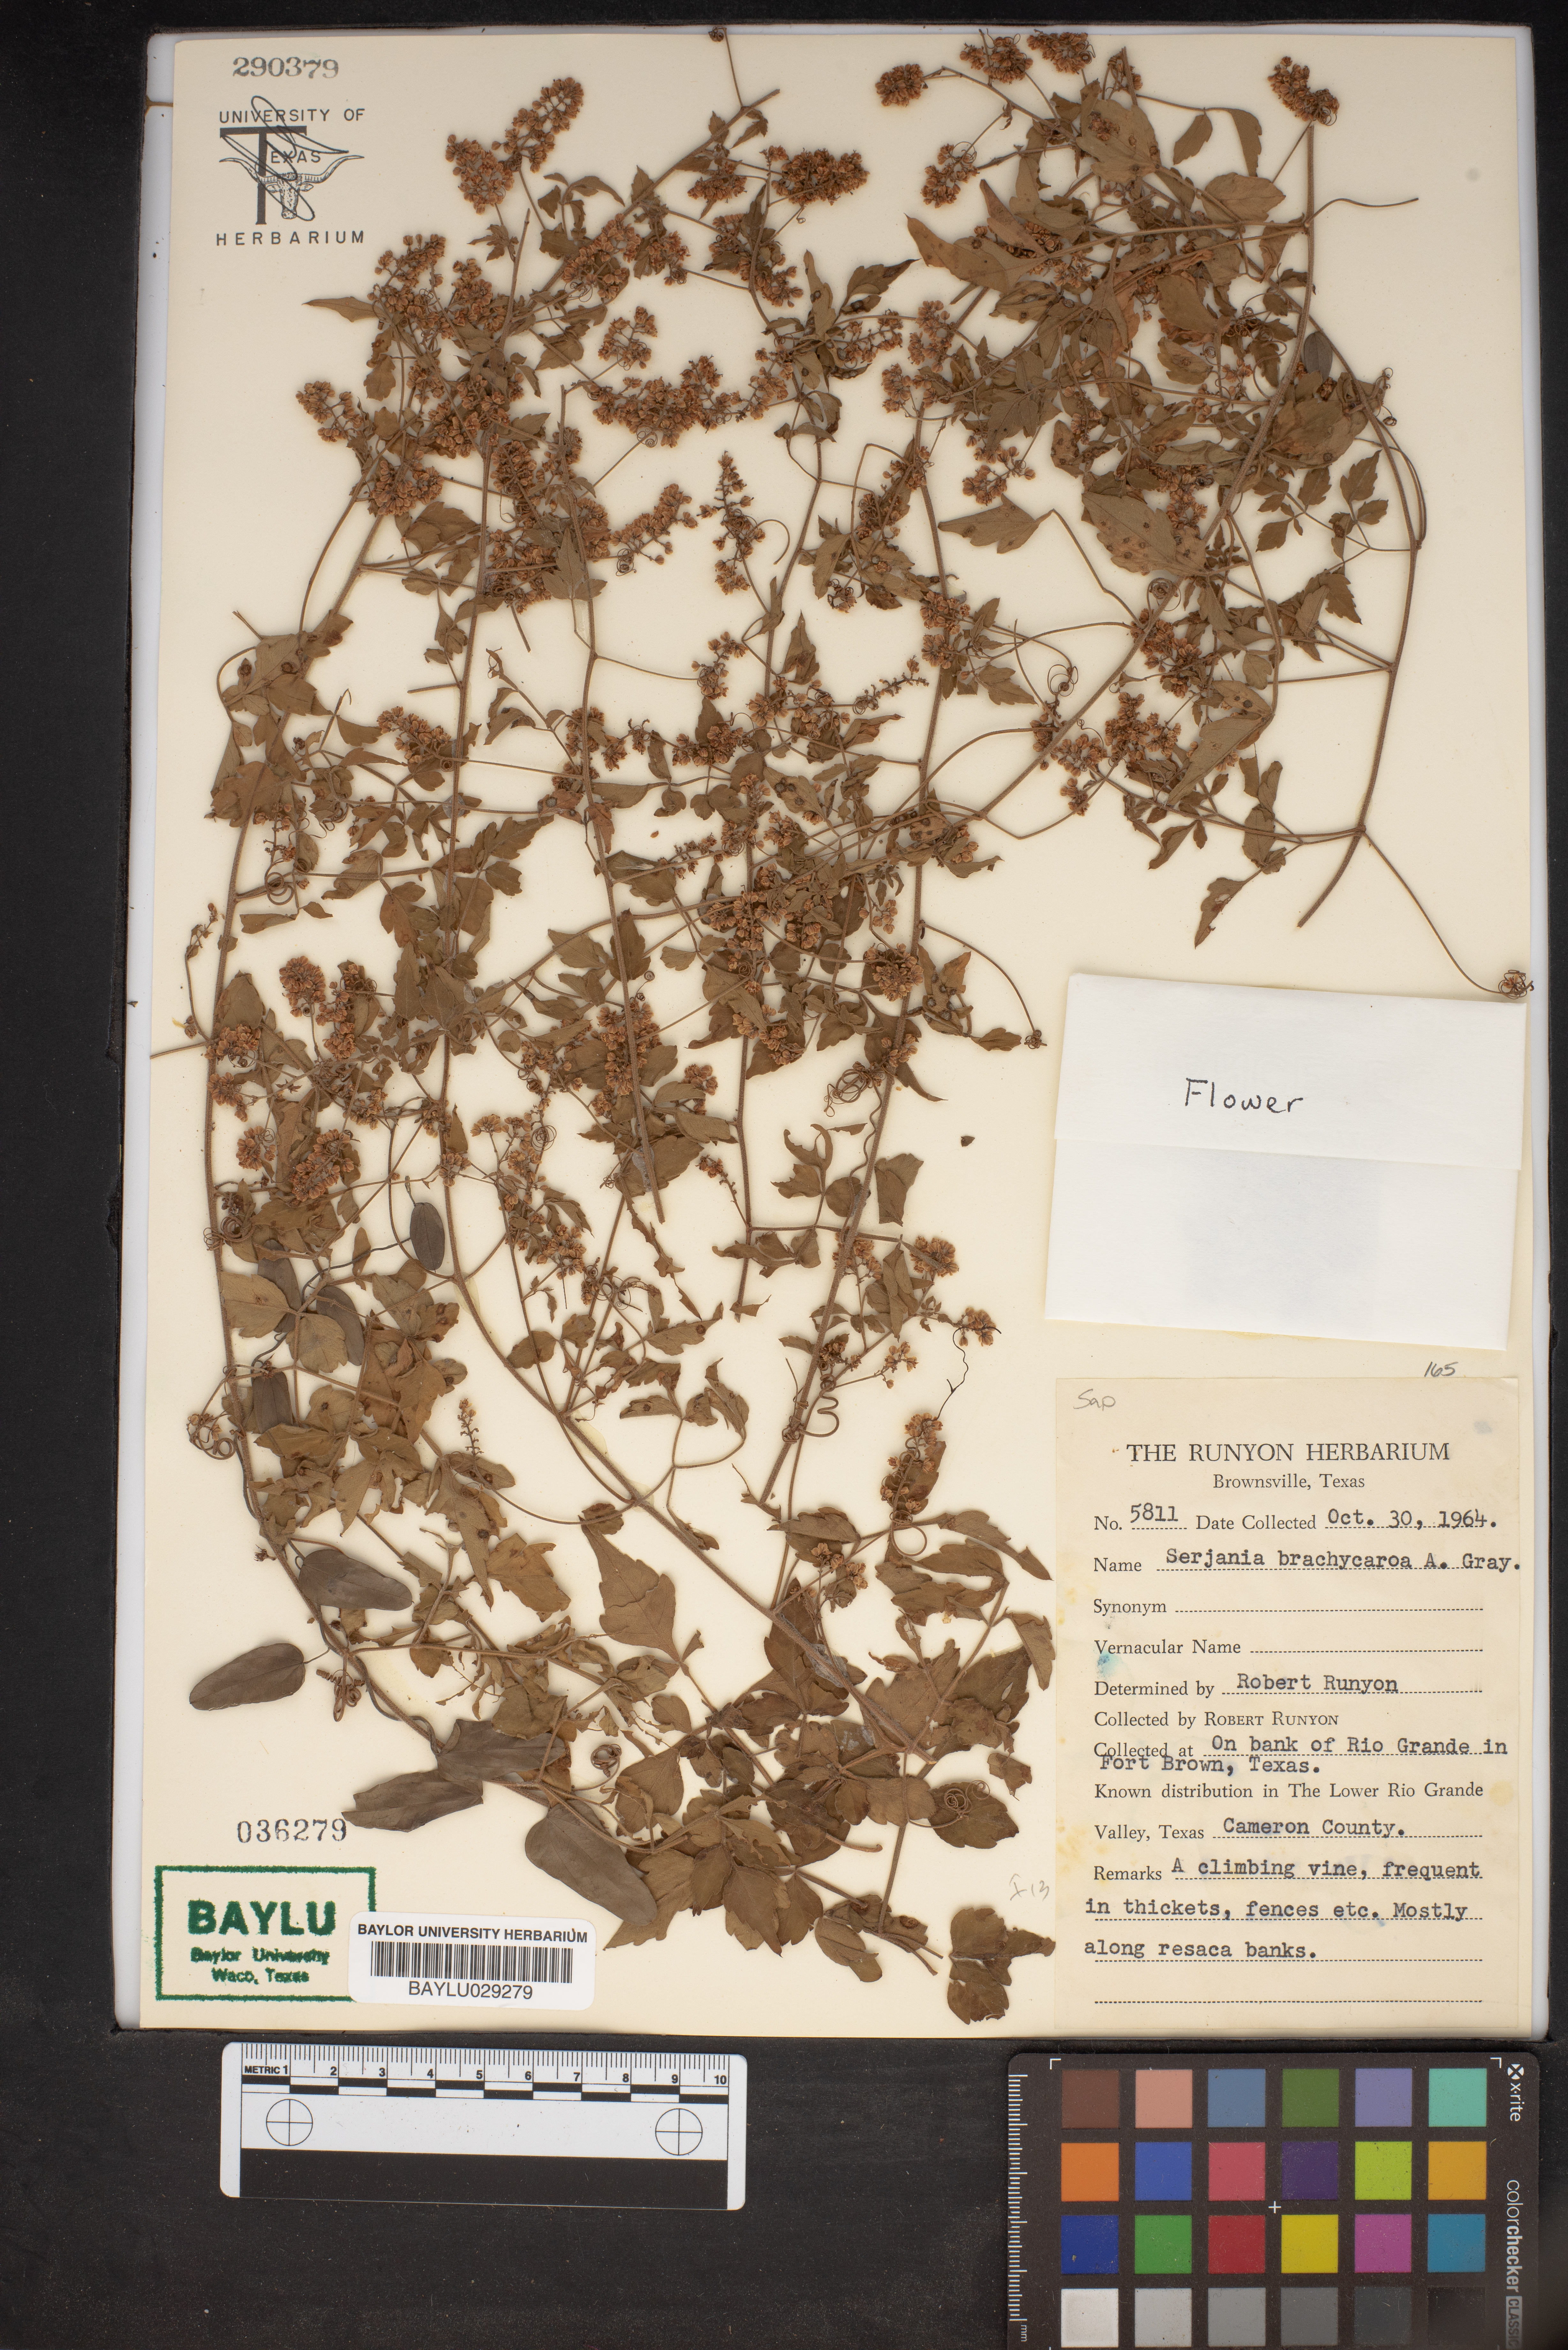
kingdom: Plantae
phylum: Tracheophyta
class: Magnoliopsida
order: Sapindales
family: Sapindaceae
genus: Serjania
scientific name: Serjania brachycarpa
